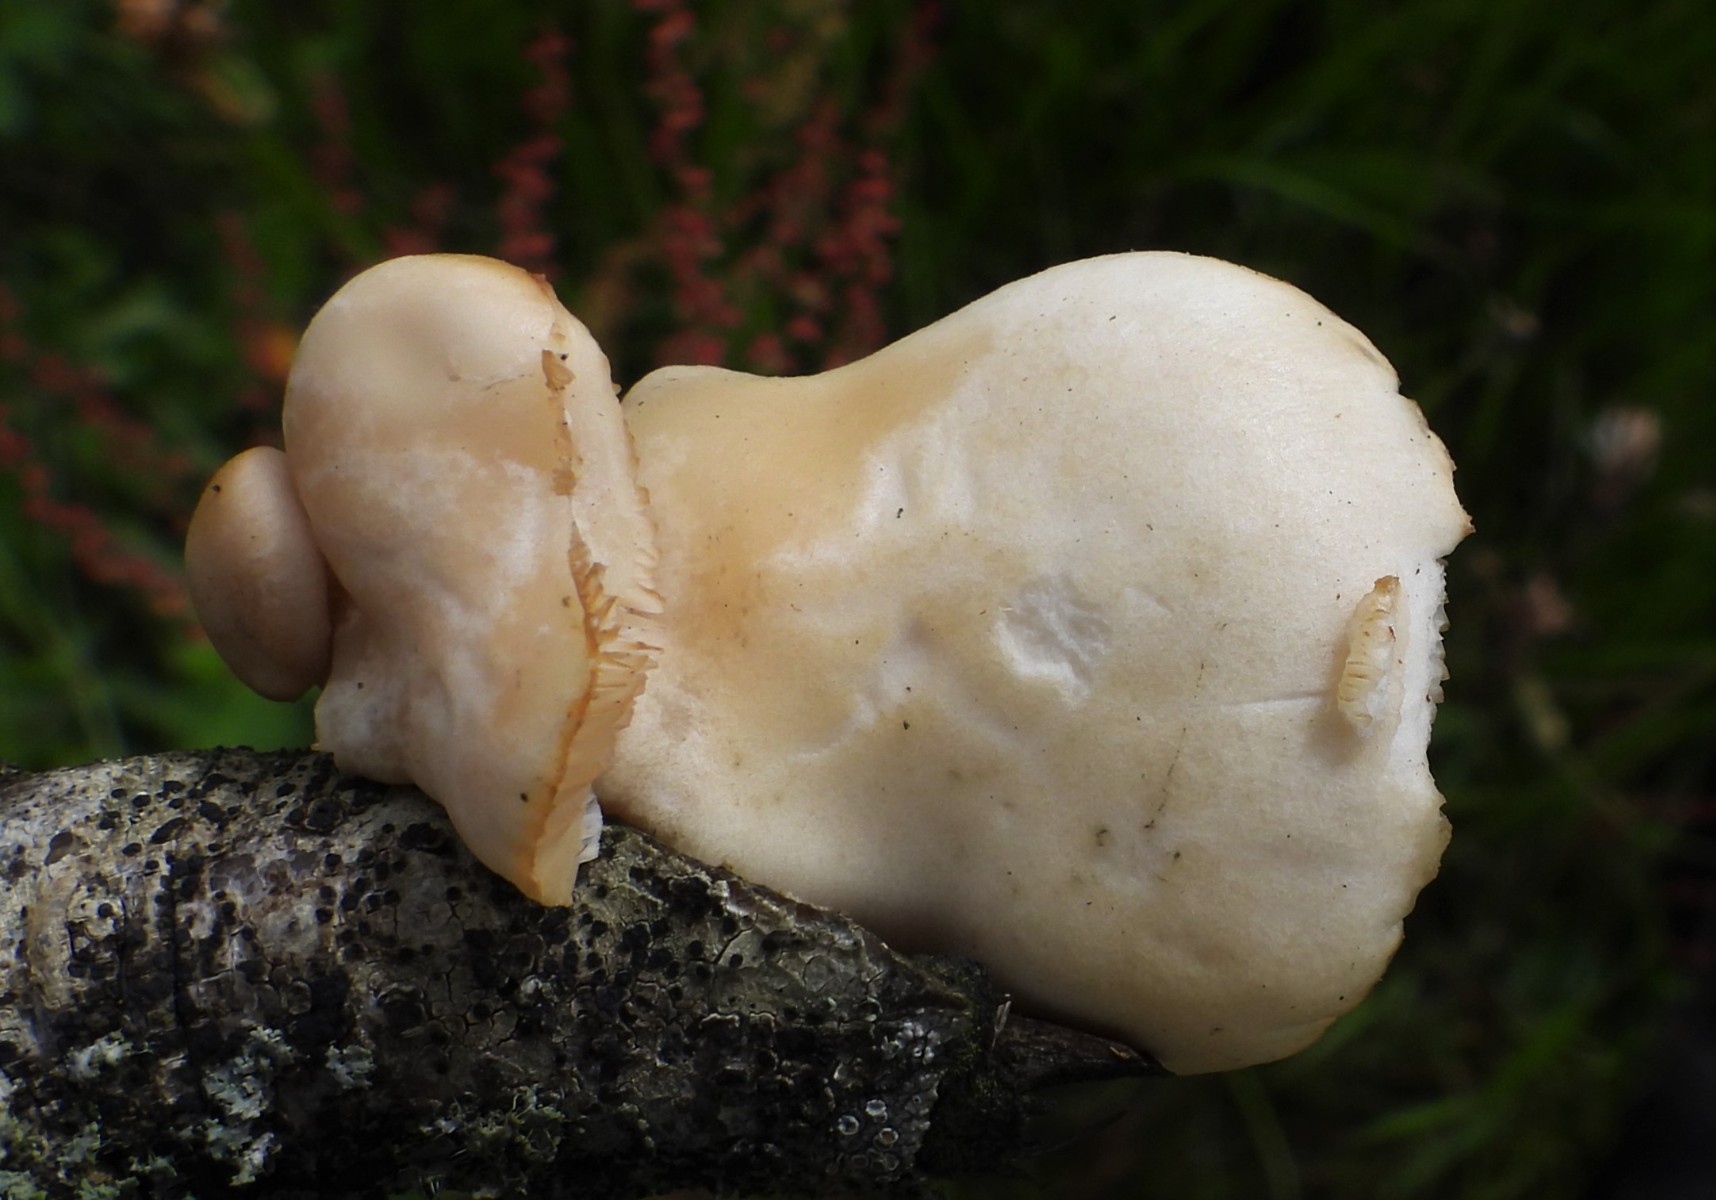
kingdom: Fungi
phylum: Basidiomycota
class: Agaricomycetes
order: Agaricales
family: Pleurotaceae
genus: Pleurotus
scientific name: Pleurotus pulmonarius
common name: sommer-østershat
